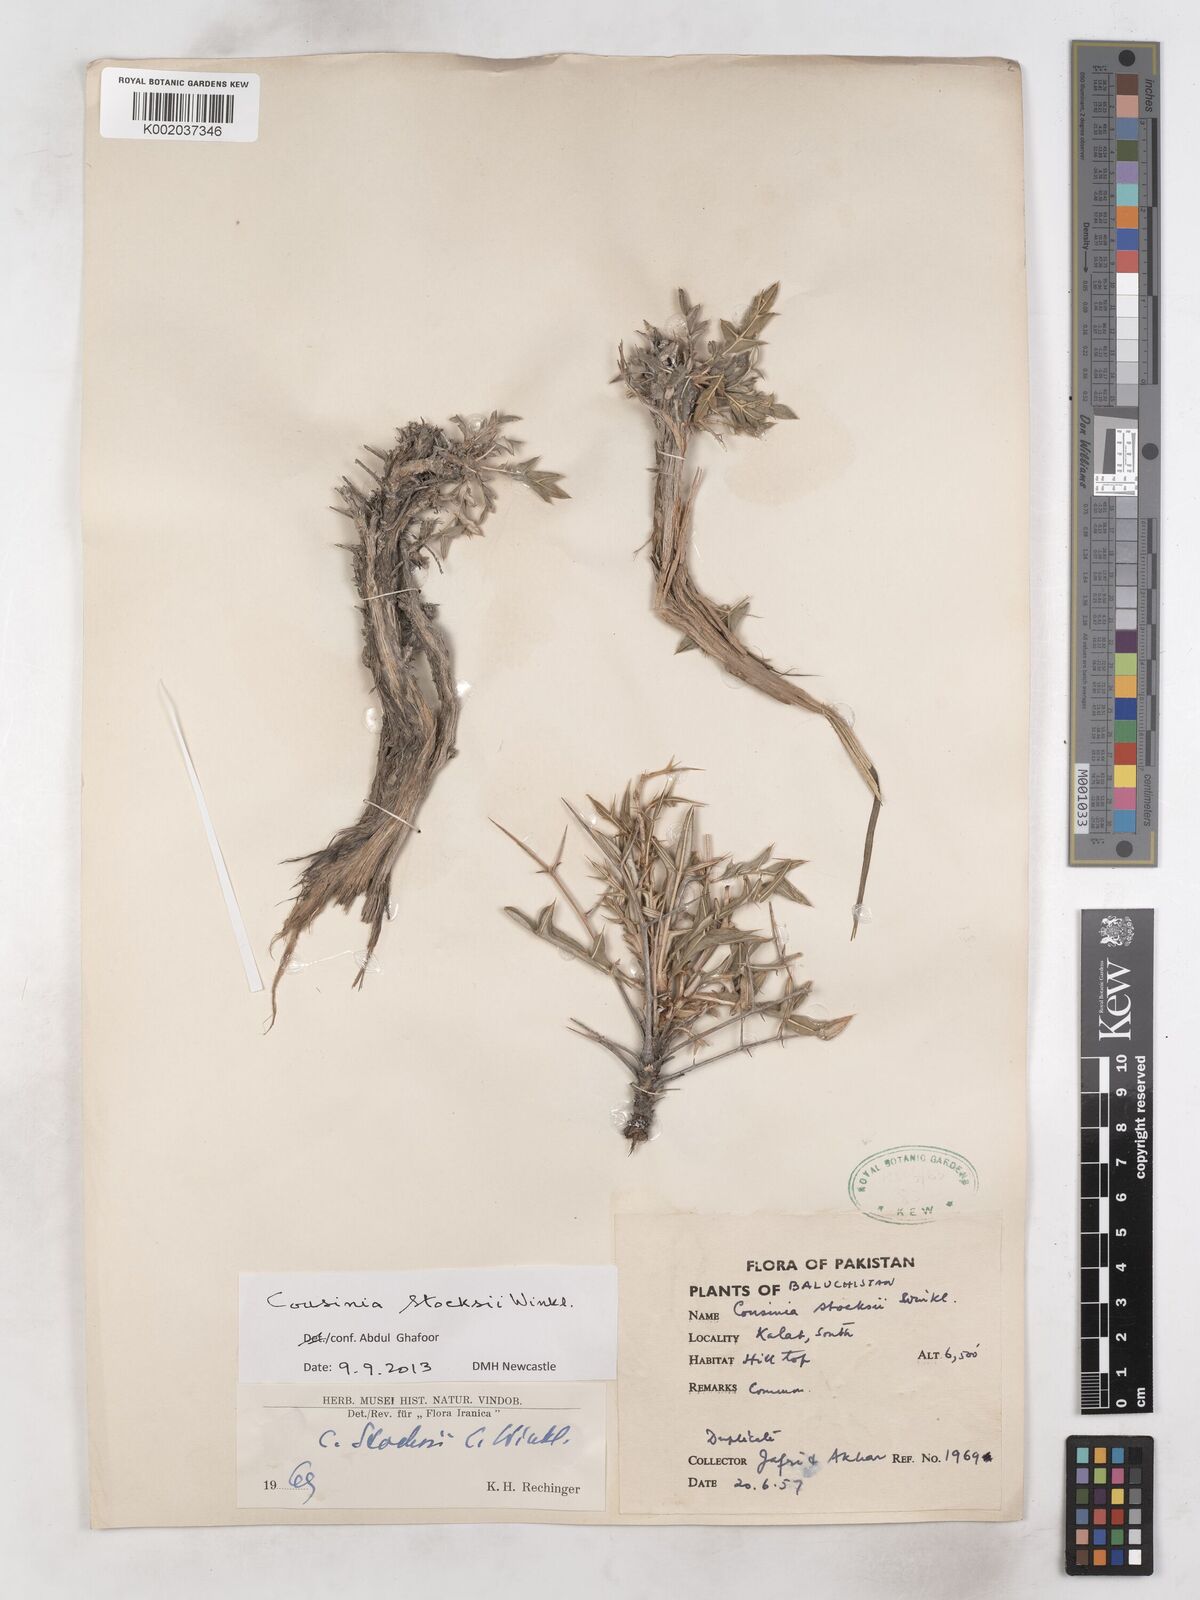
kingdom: Plantae
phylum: Tracheophyta
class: Magnoliopsida
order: Asterales
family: Asteraceae
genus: Cousinia
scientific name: Cousinia stocksii
